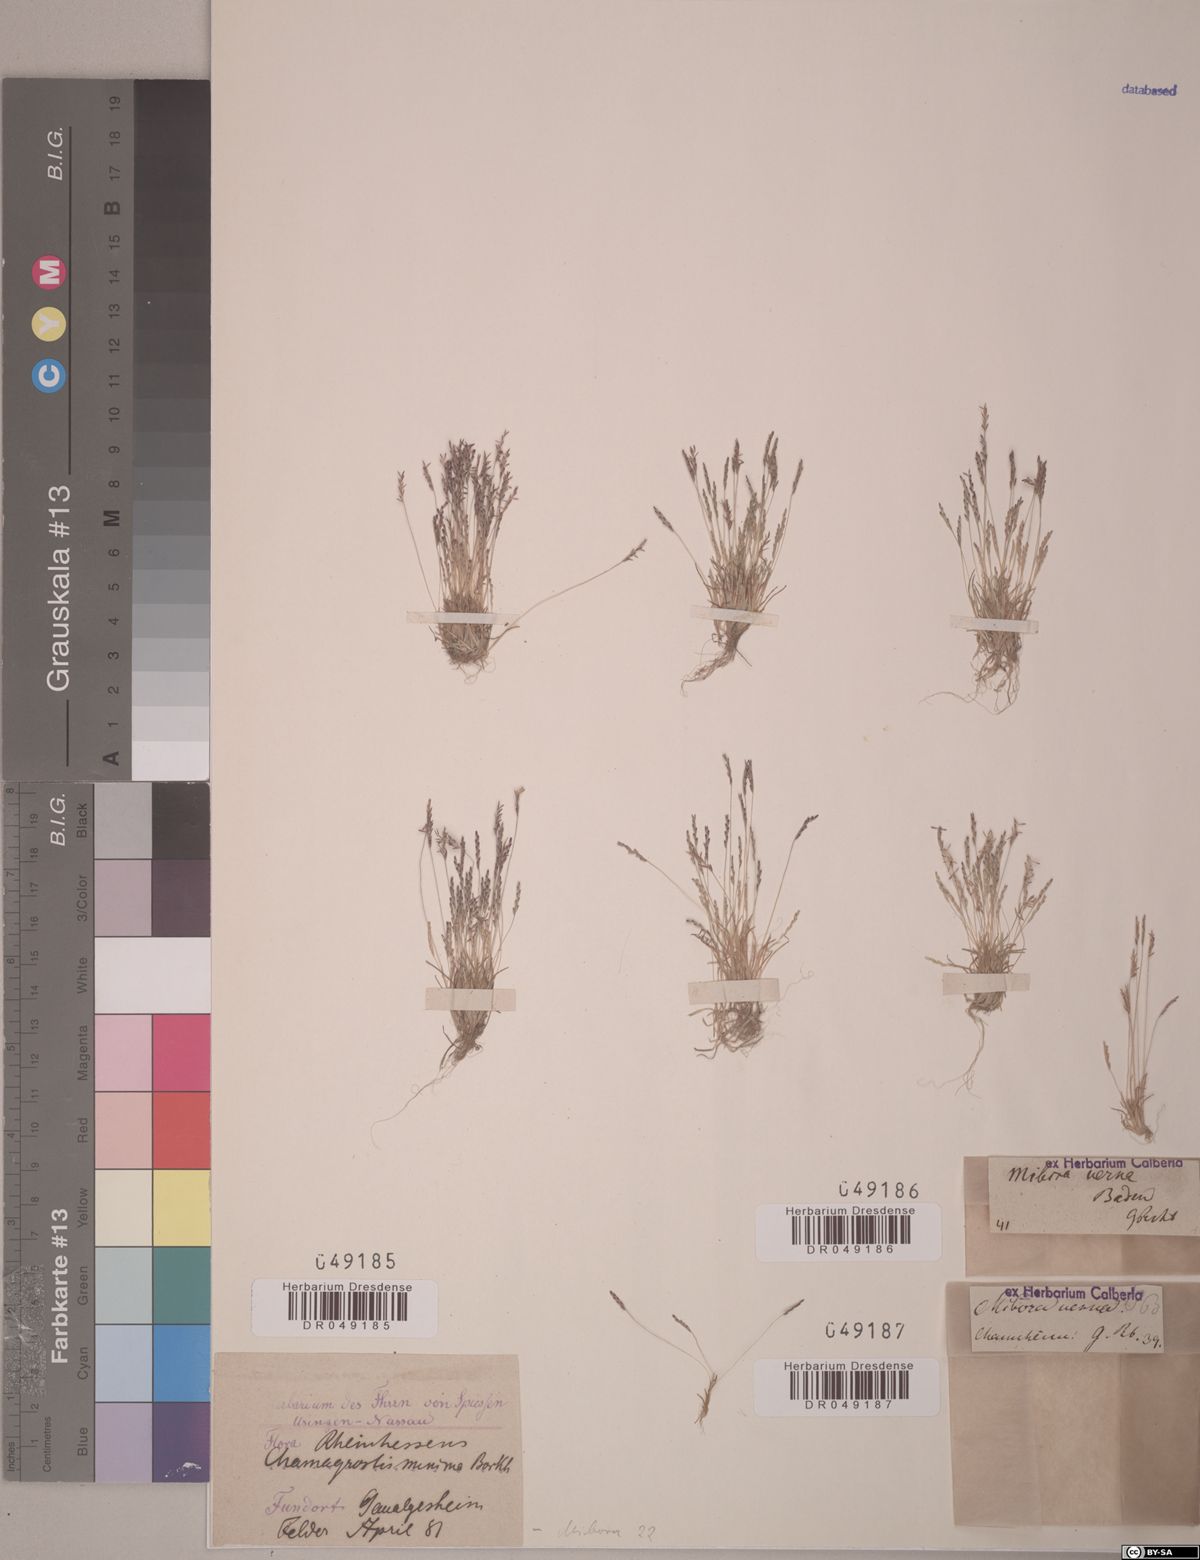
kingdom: Plantae
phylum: Tracheophyta
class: Liliopsida
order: Poales
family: Poaceae
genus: Mibora
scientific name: Mibora minima
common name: Early sand-grass
